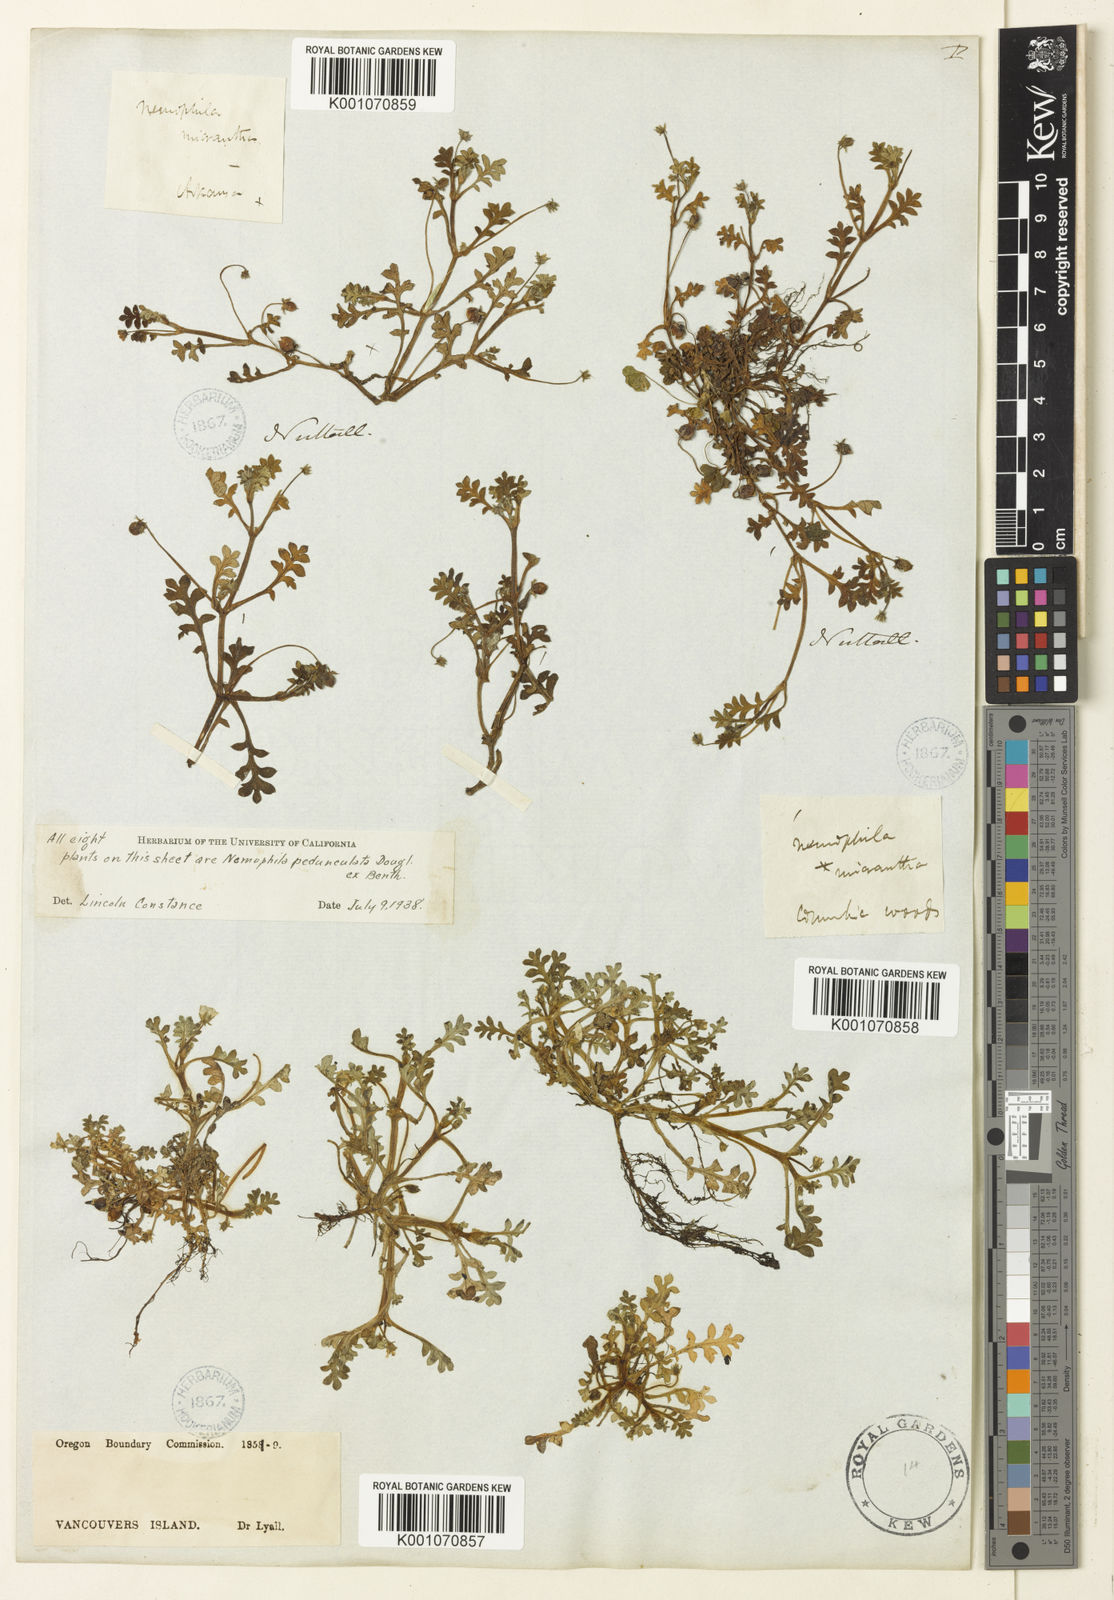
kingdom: Plantae
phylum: Tracheophyta
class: Magnoliopsida
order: Boraginales
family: Hydrophyllaceae
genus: Nemophila
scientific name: Nemophila
